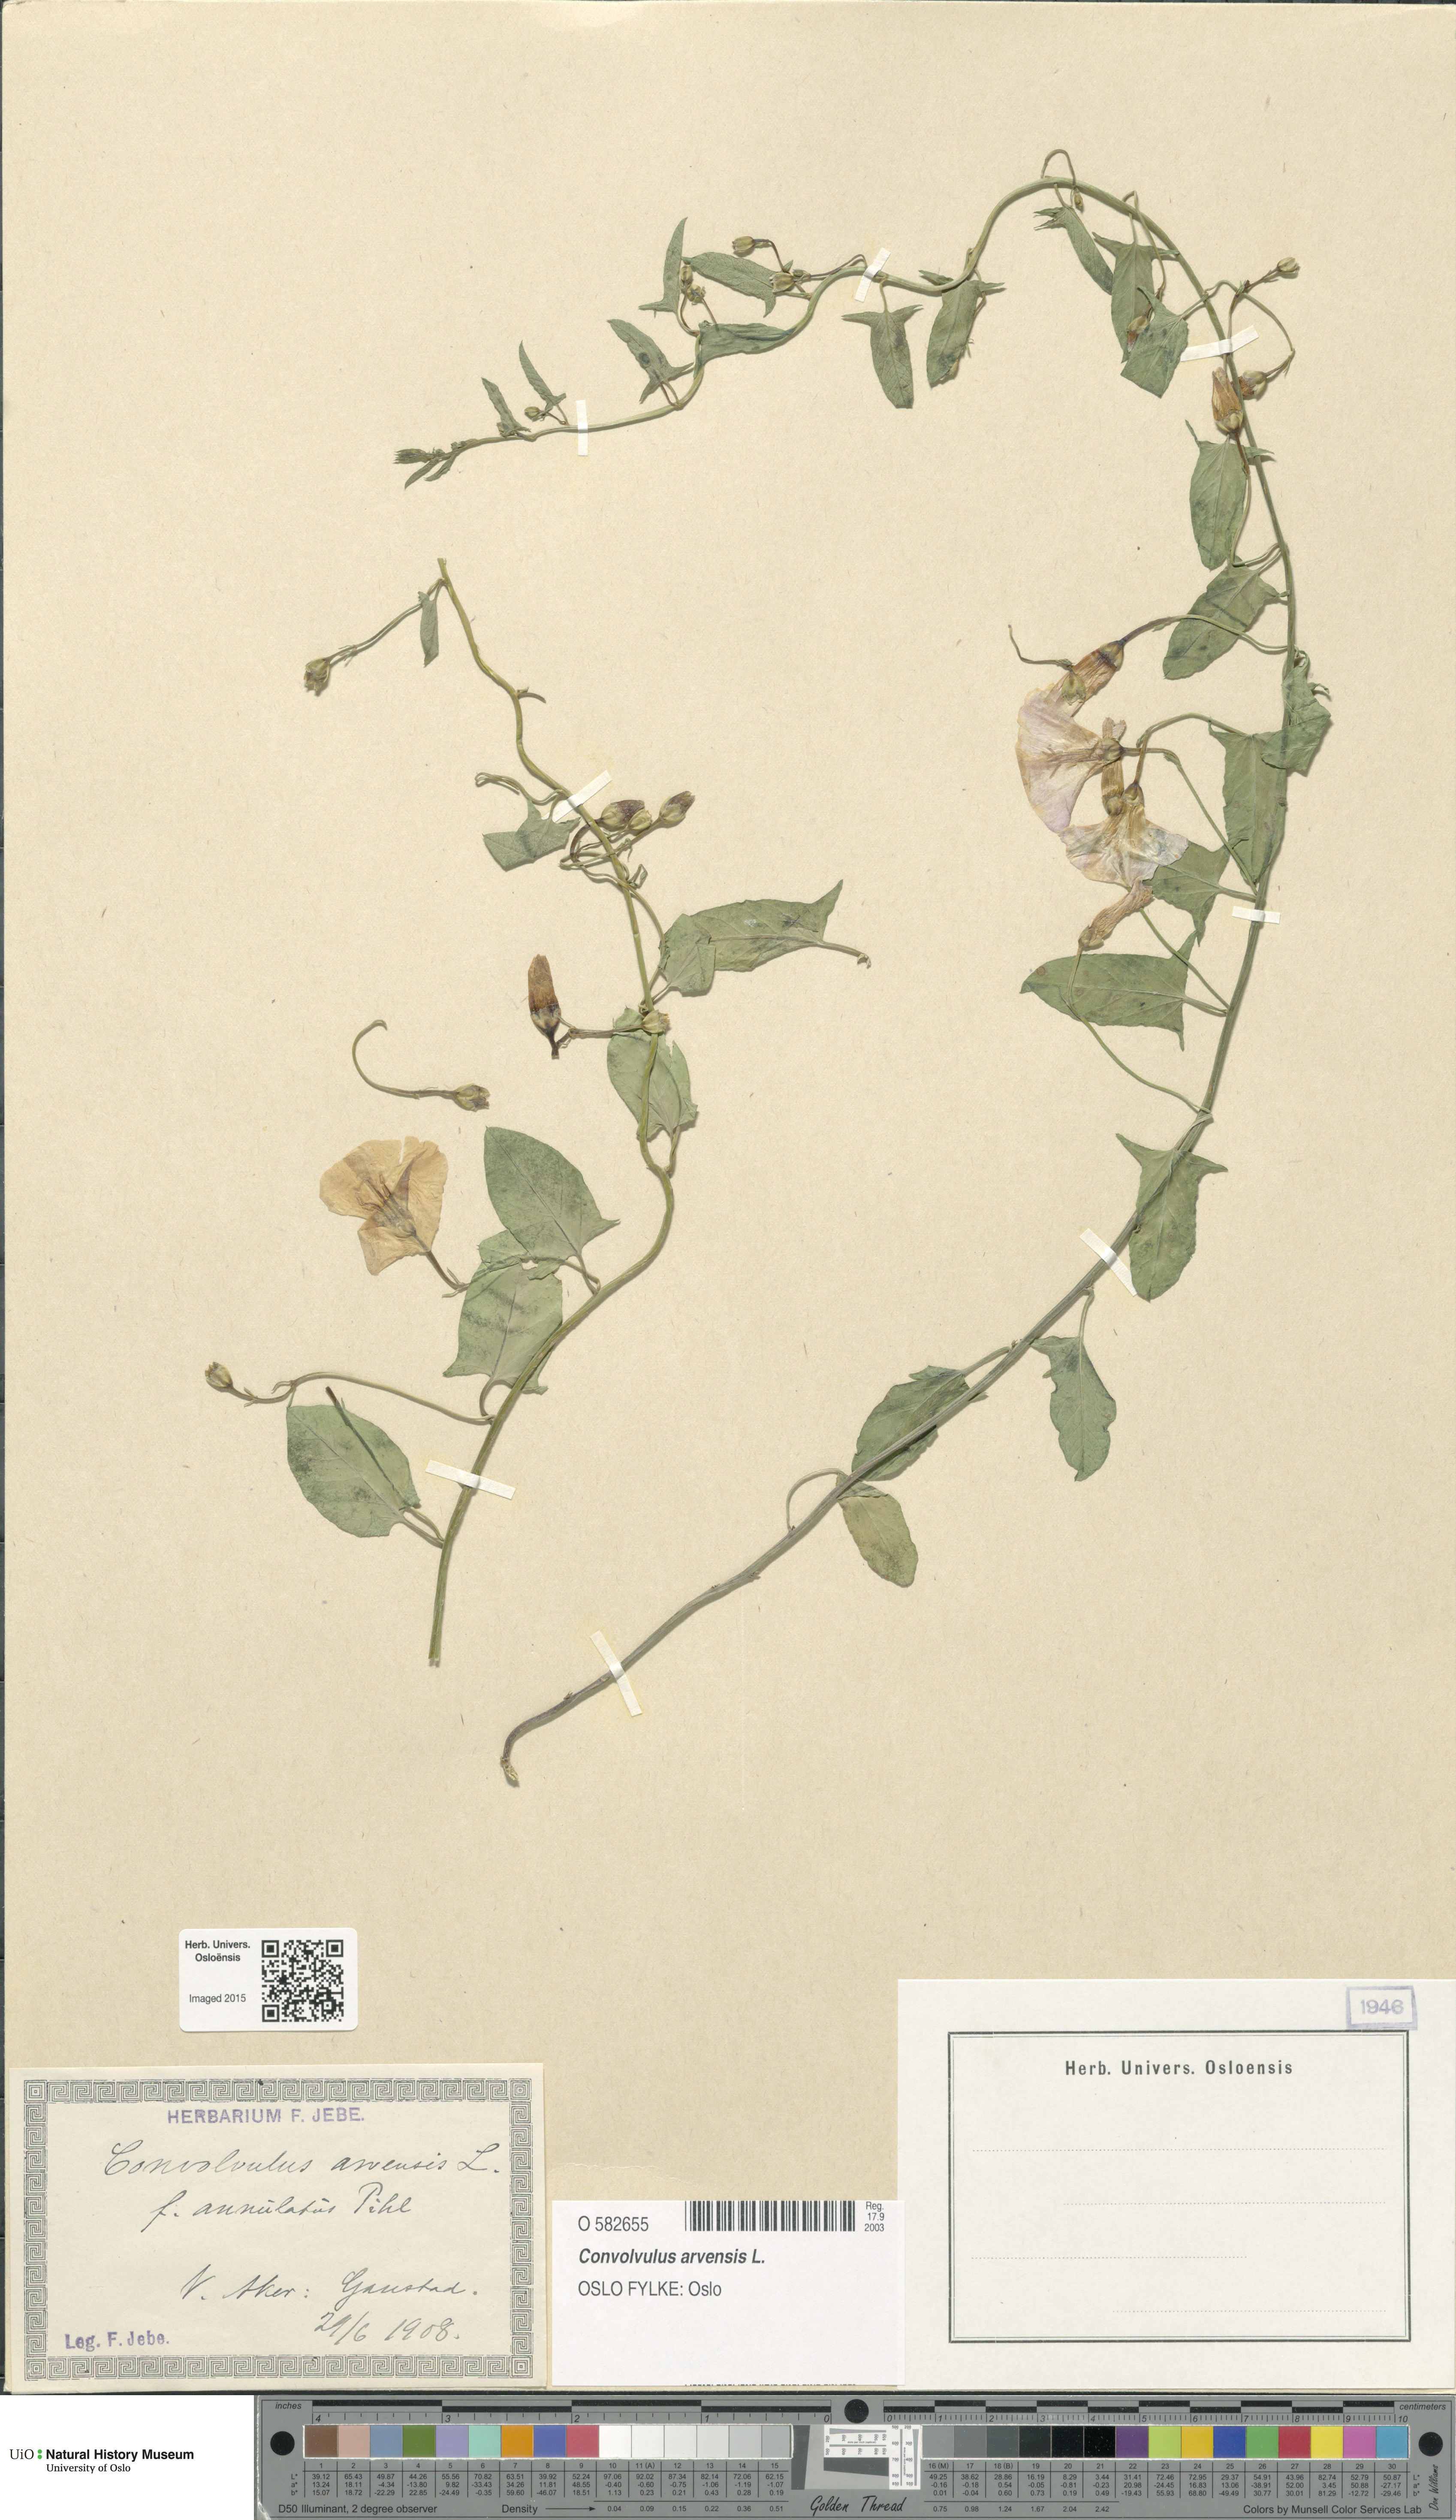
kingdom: Plantae
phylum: Tracheophyta
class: Magnoliopsida
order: Solanales
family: Convolvulaceae
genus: Convolvulus
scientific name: Convolvulus arvensis
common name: Field bindweed
